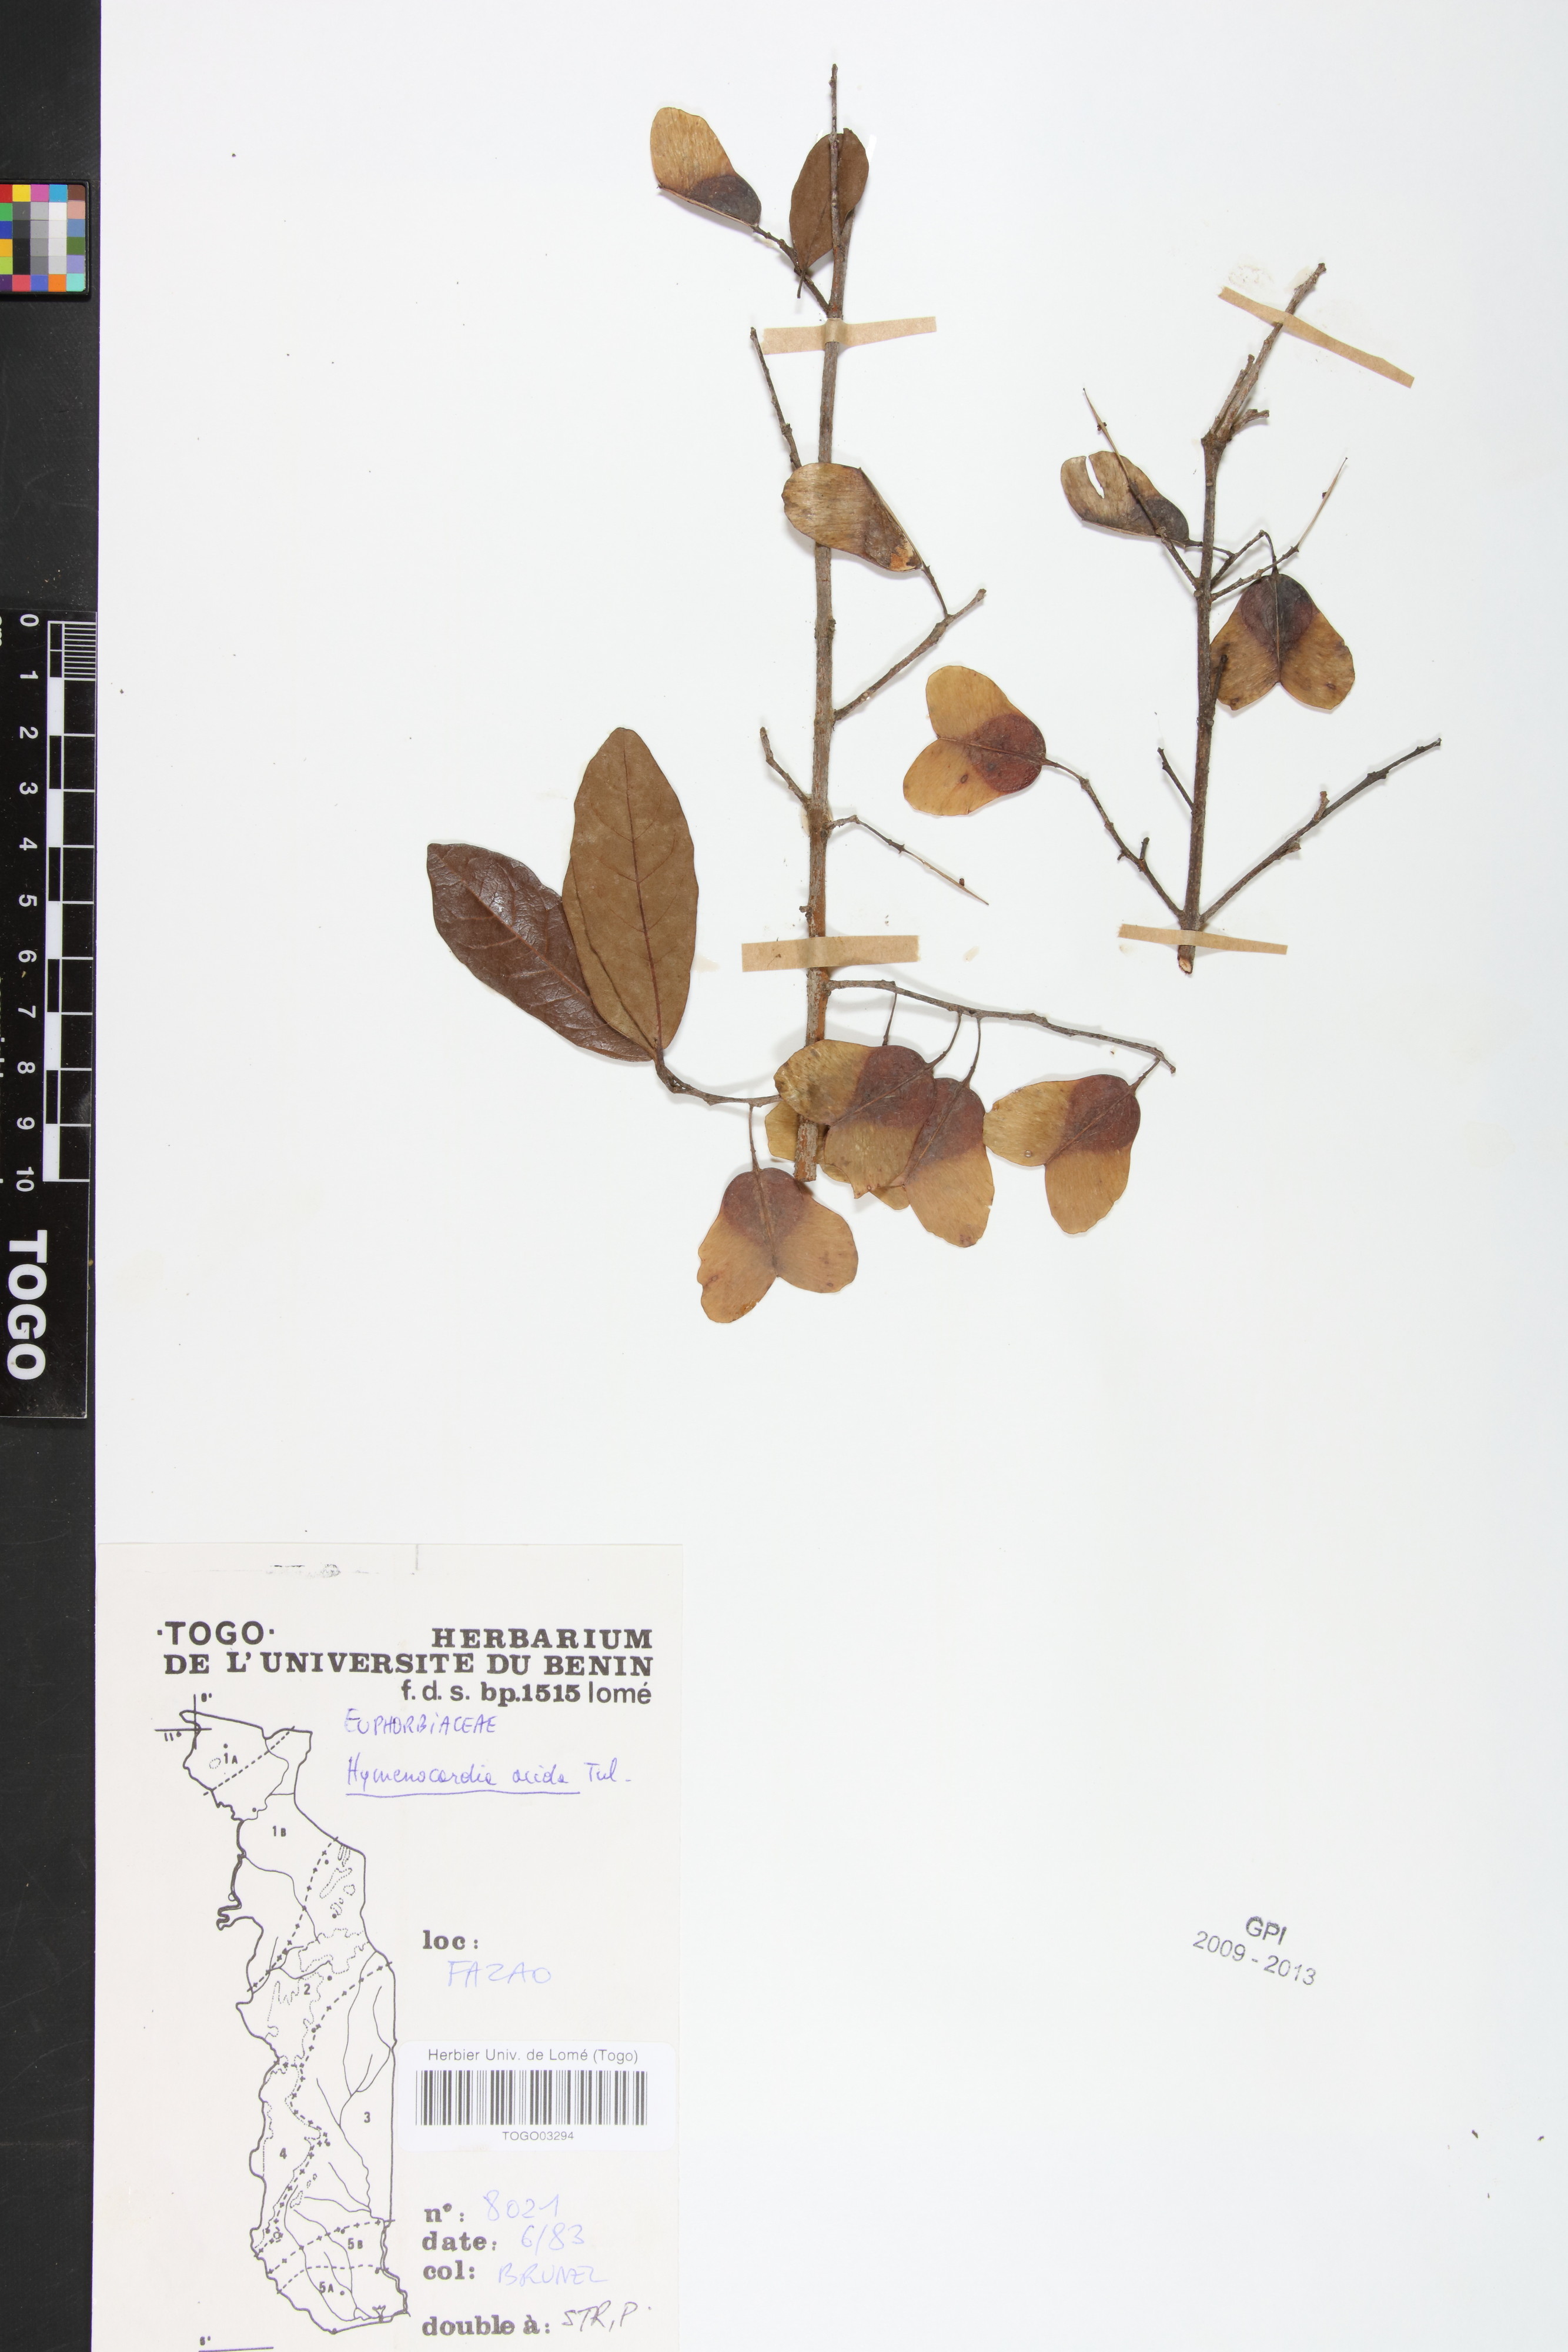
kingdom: Plantae
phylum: Tracheophyta
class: Magnoliopsida
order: Malpighiales
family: Phyllanthaceae
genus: Hymenocardia
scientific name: Hymenocardia acida
